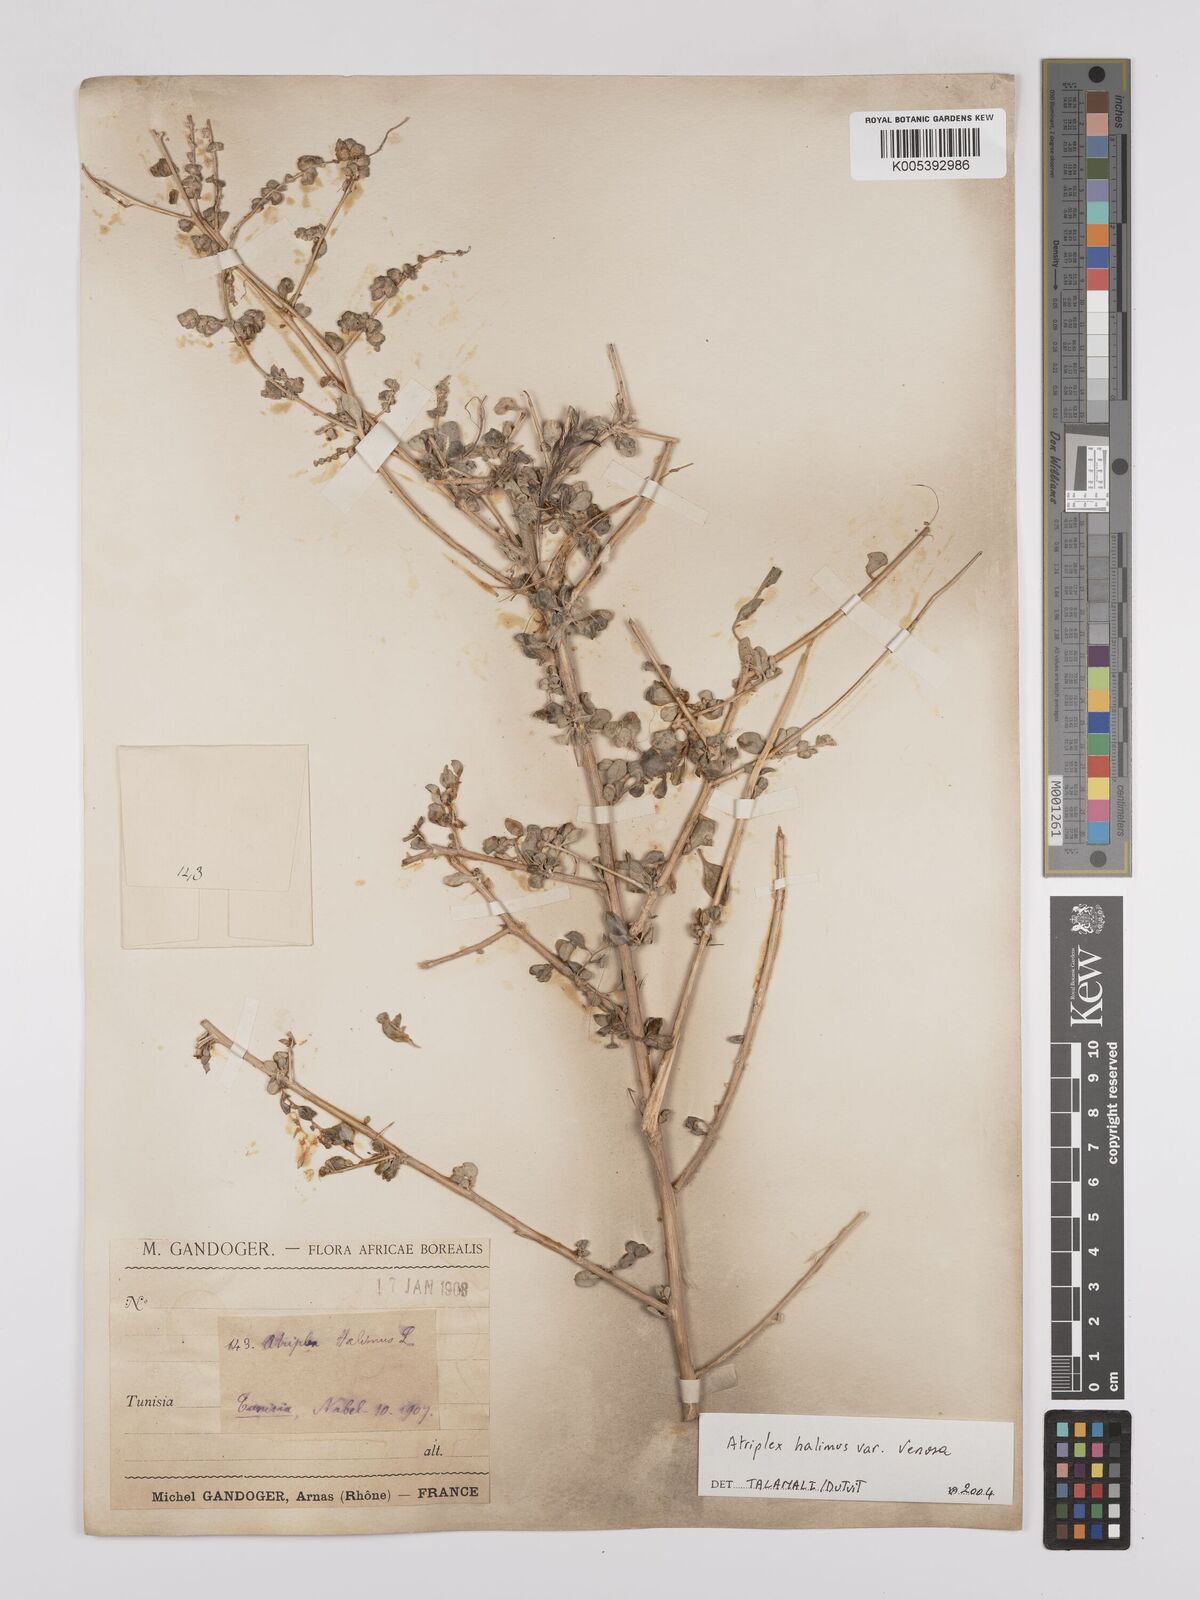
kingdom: Plantae
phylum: Tracheophyta
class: Magnoliopsida
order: Caryophyllales
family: Amaranthaceae
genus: Atriplex
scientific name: Atriplex
